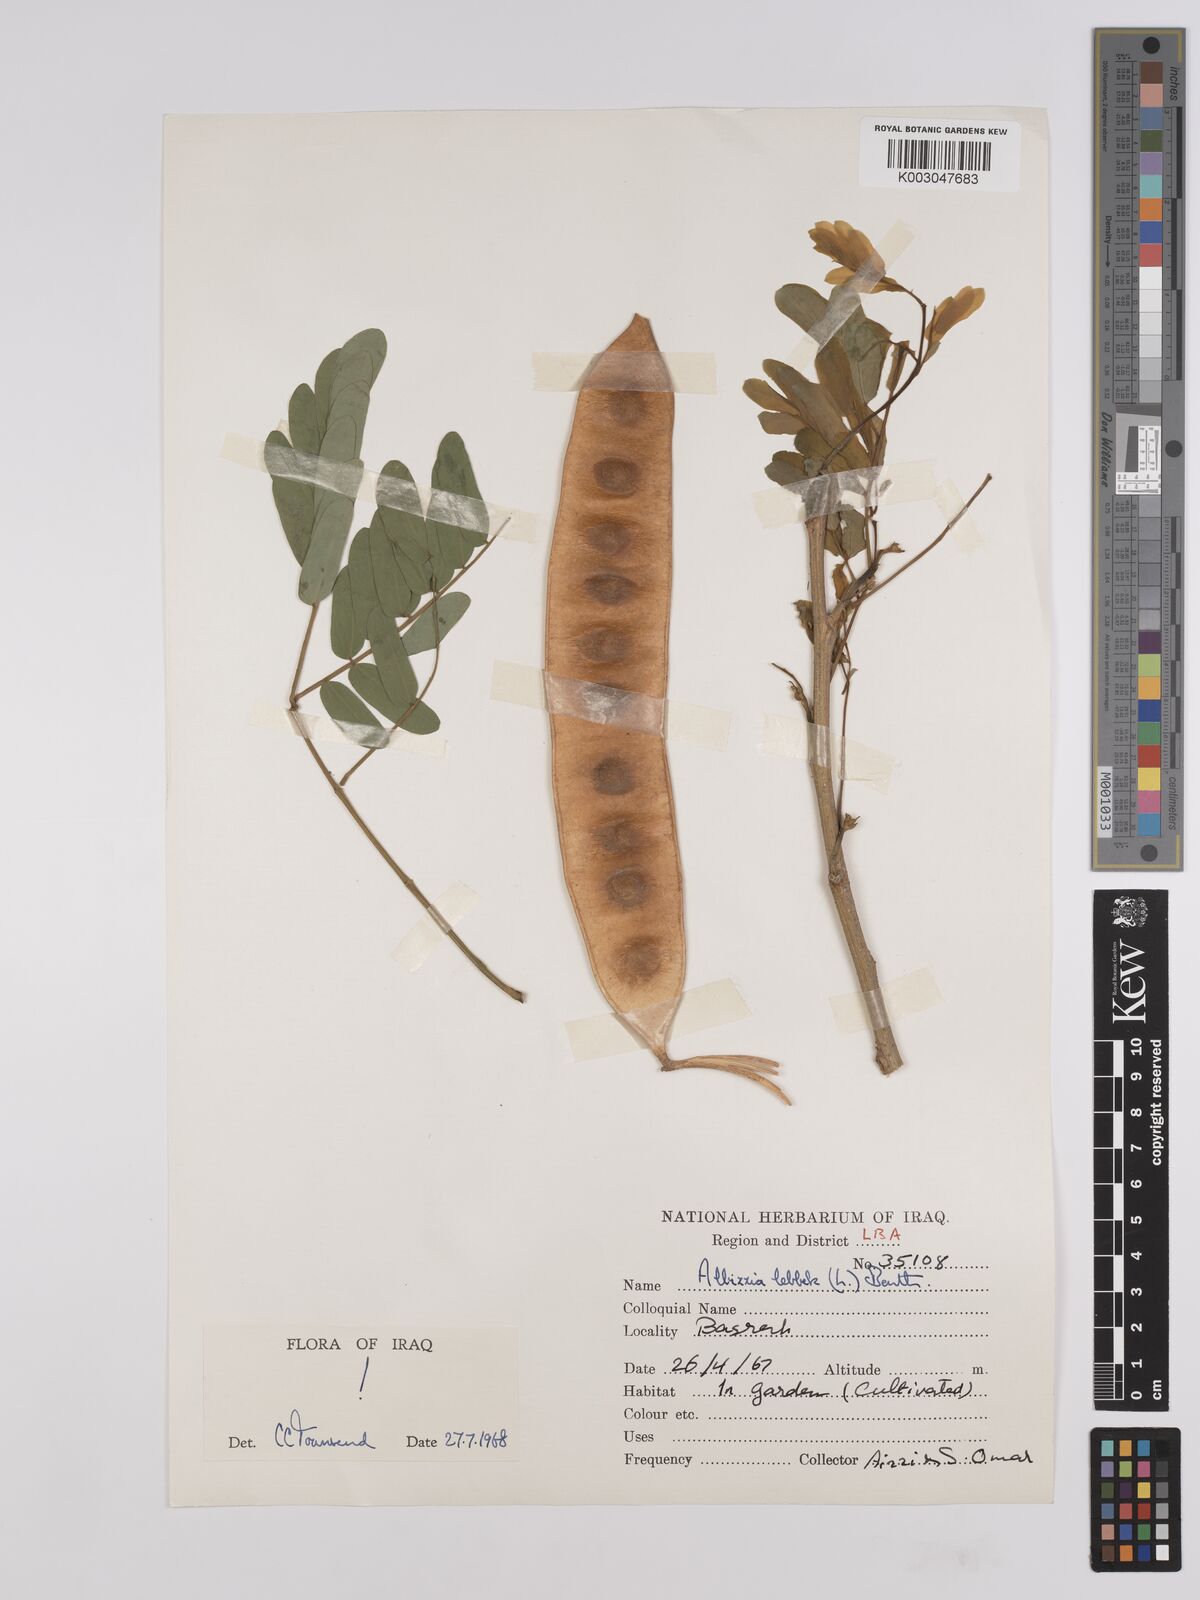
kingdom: Plantae
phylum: Tracheophyta
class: Magnoliopsida
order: Fabales
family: Fabaceae
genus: Albizia
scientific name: Albizia lebbeck
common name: Woman's tongue
